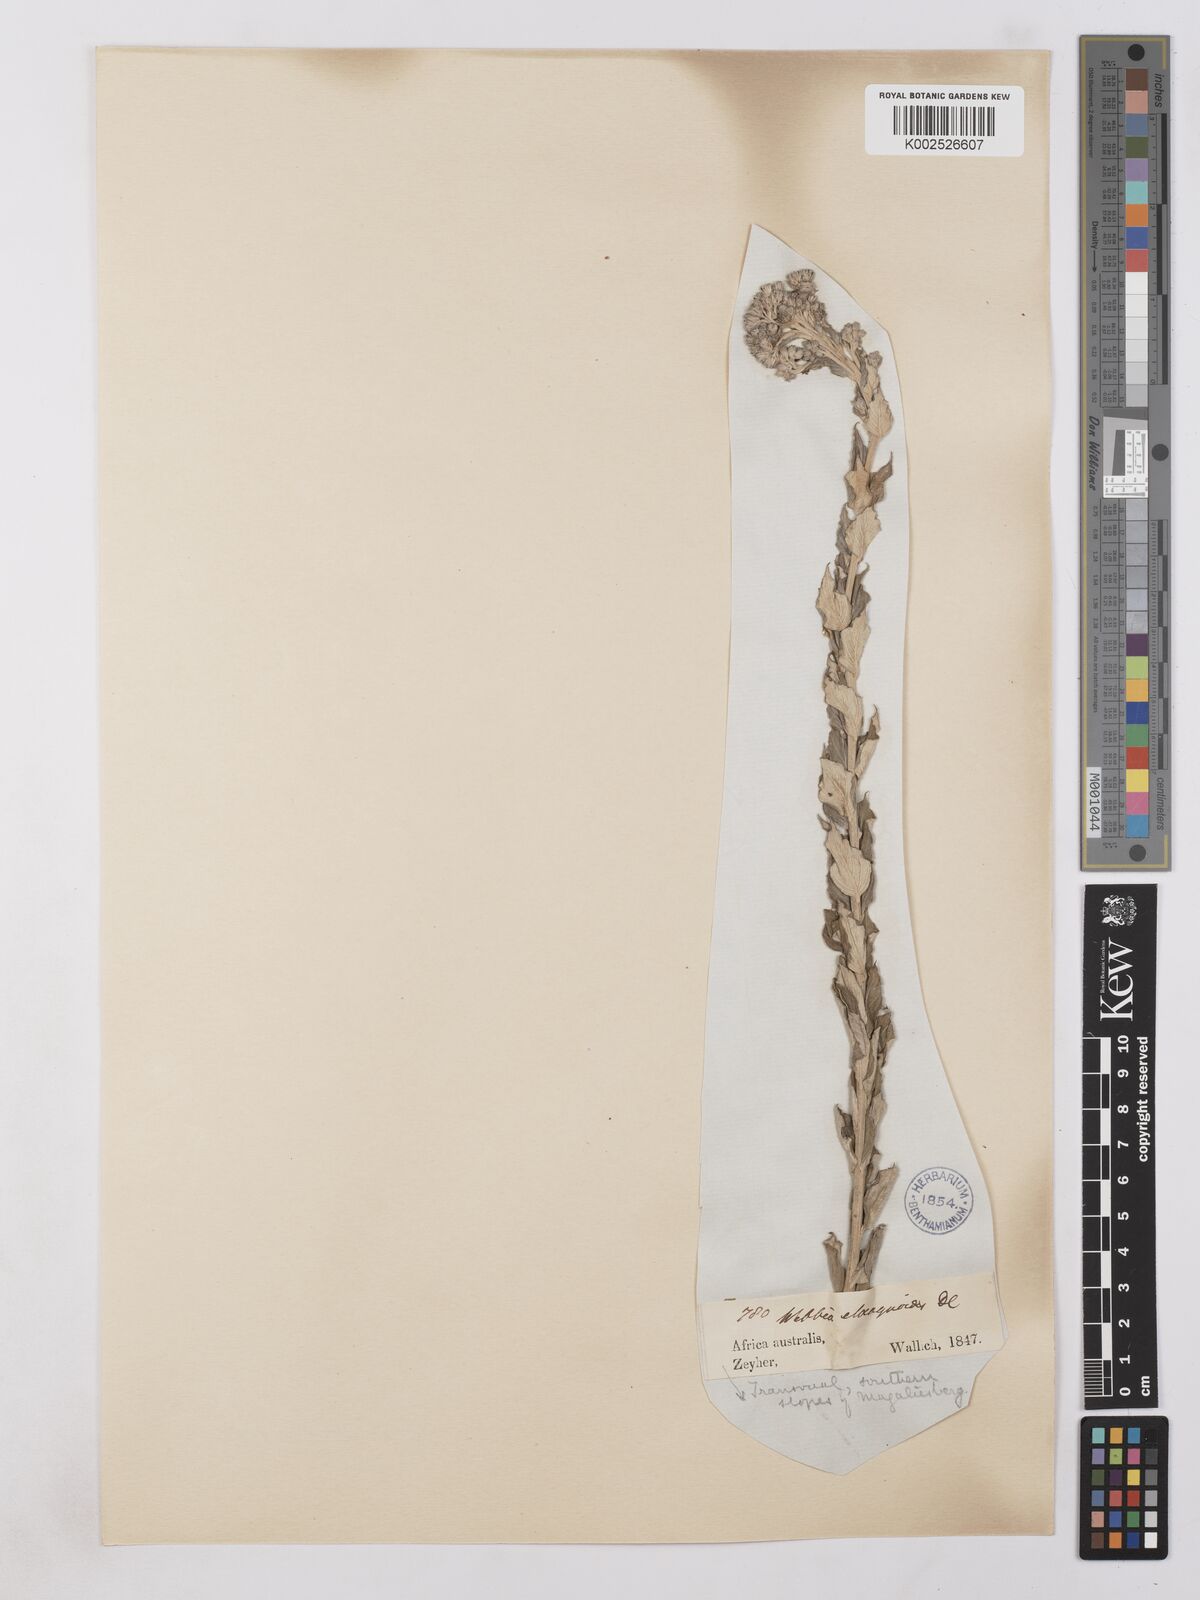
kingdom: Plantae
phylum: Tracheophyta
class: Magnoliopsida
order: Asterales
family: Asteraceae
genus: Lepidaploa
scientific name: Lepidaploa aurea
